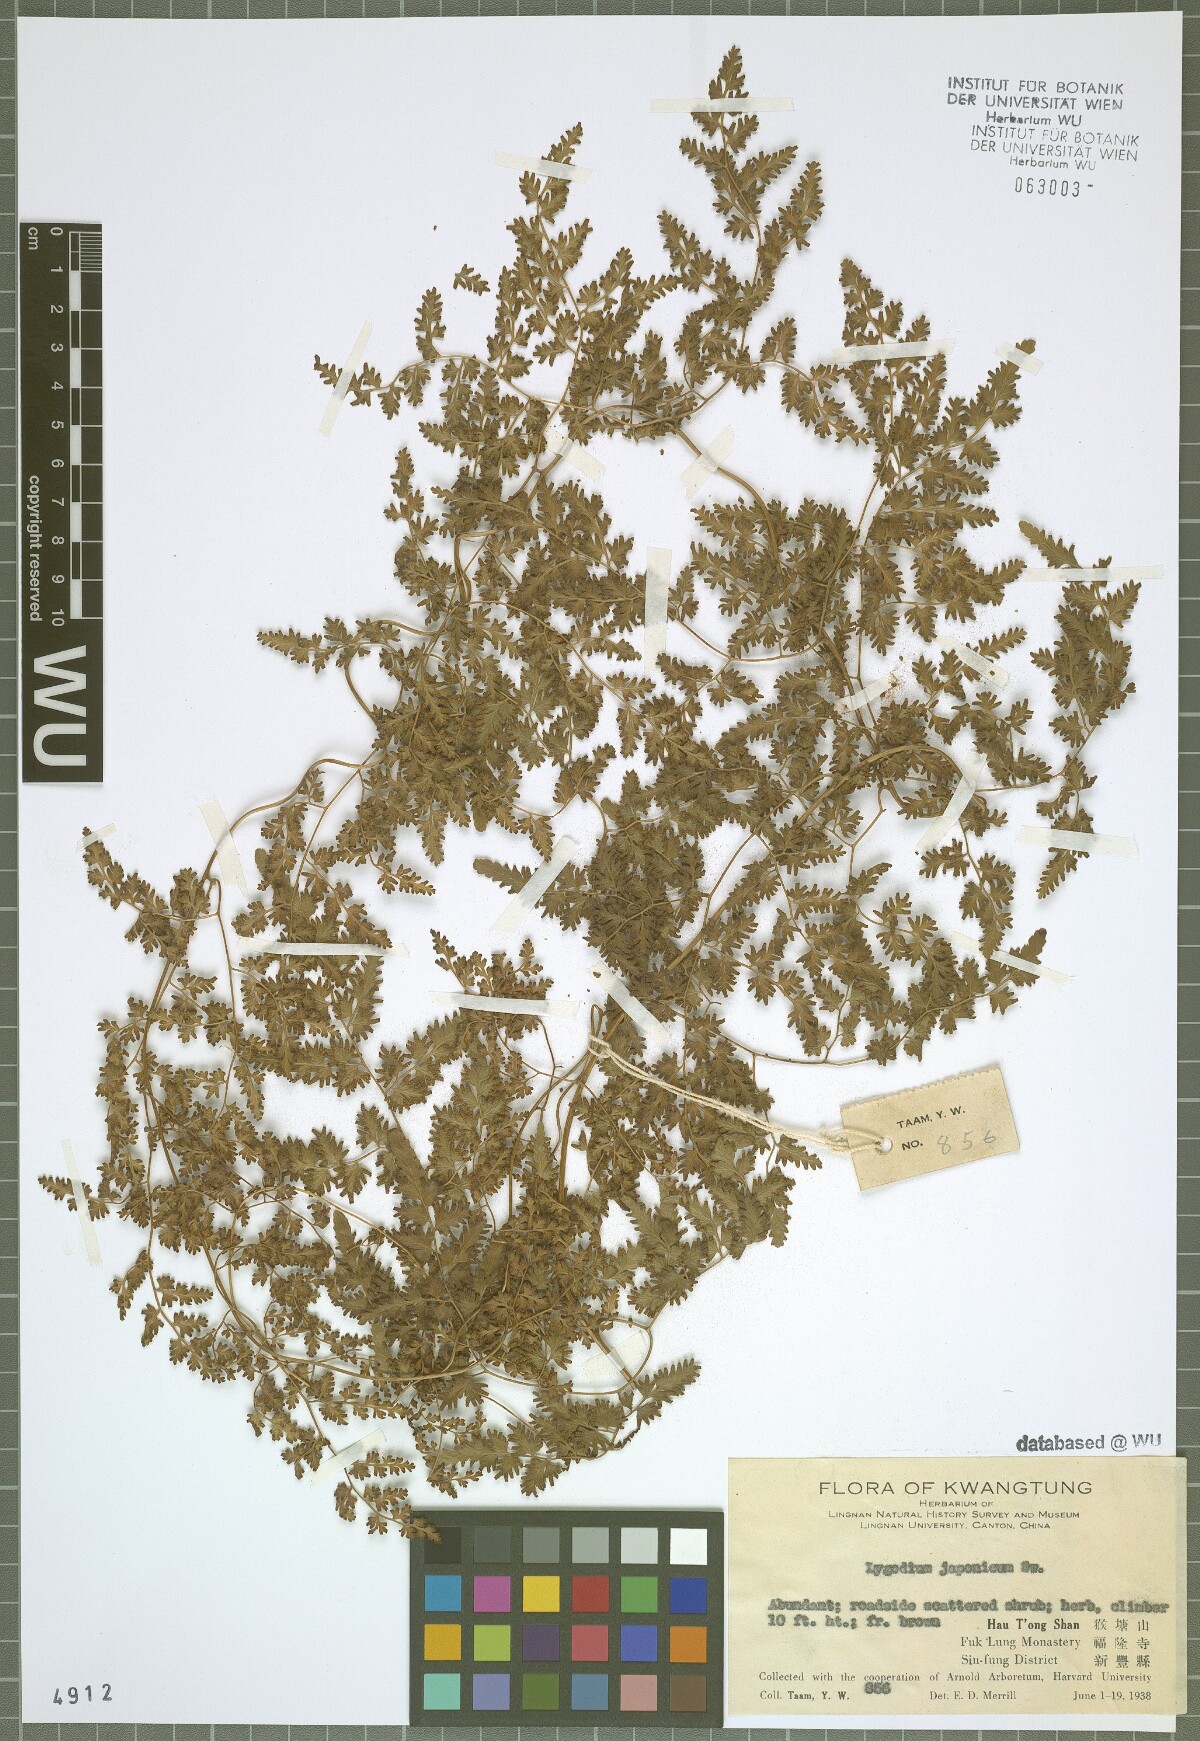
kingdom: Plantae
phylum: Tracheophyta
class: Polypodiopsida
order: Schizaeales
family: Lygodiaceae
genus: Lygodium
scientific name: Lygodium japonicum
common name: Japanese climbing fern
